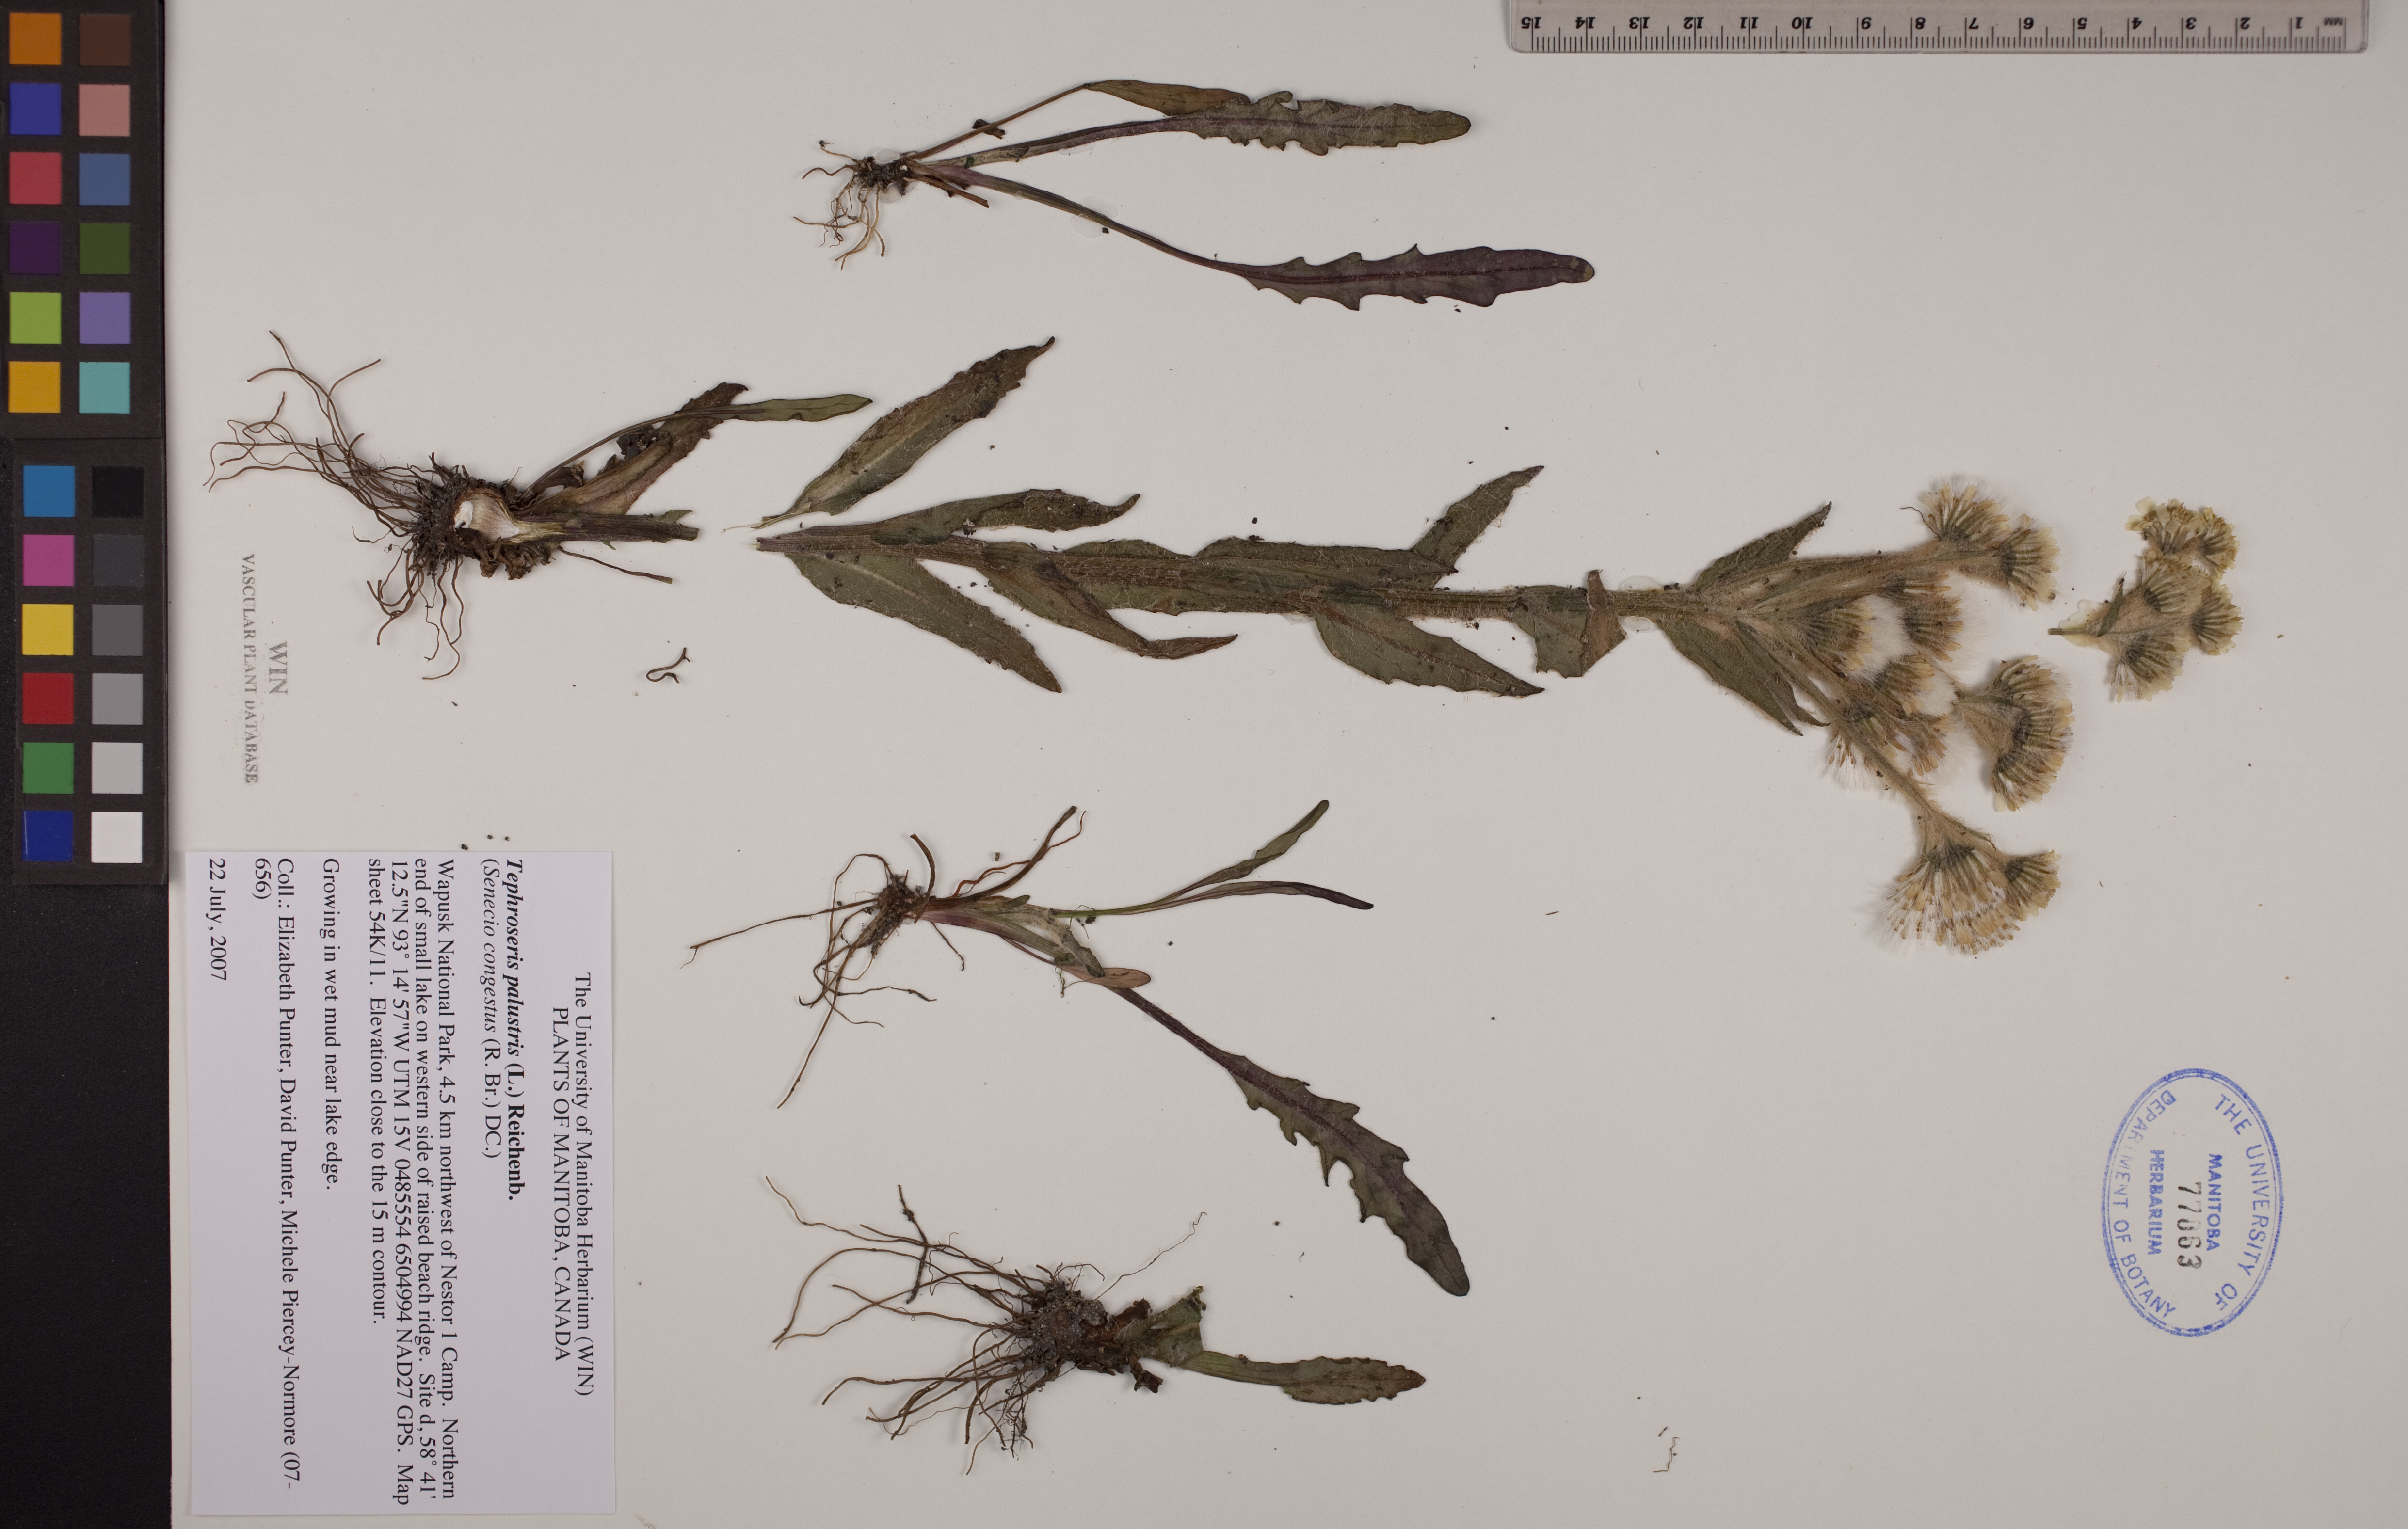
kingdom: Plantae
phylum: Tracheophyta
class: Magnoliopsida
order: Asterales
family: Asteraceae
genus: Tephroseris
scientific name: Tephroseris palustris
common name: Marsh fleawort
